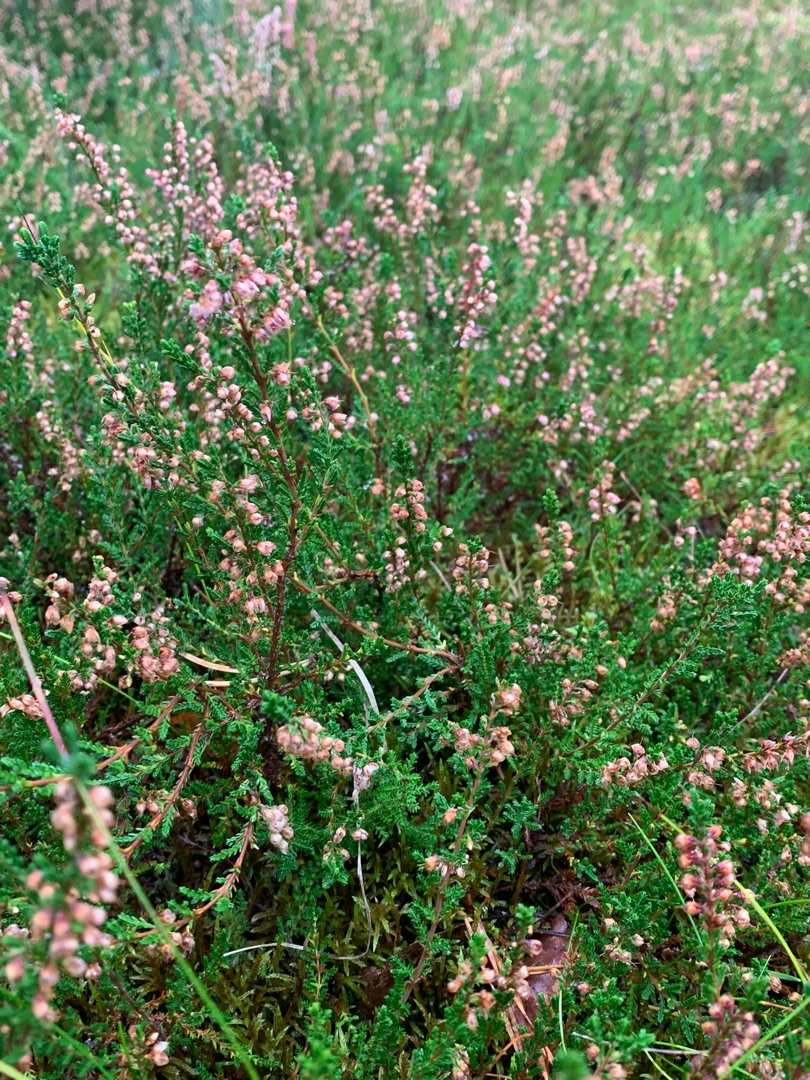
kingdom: Plantae
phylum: Tracheophyta
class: Magnoliopsida
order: Ericales
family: Ericaceae
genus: Calluna
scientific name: Calluna vulgaris
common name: Hedelyng
